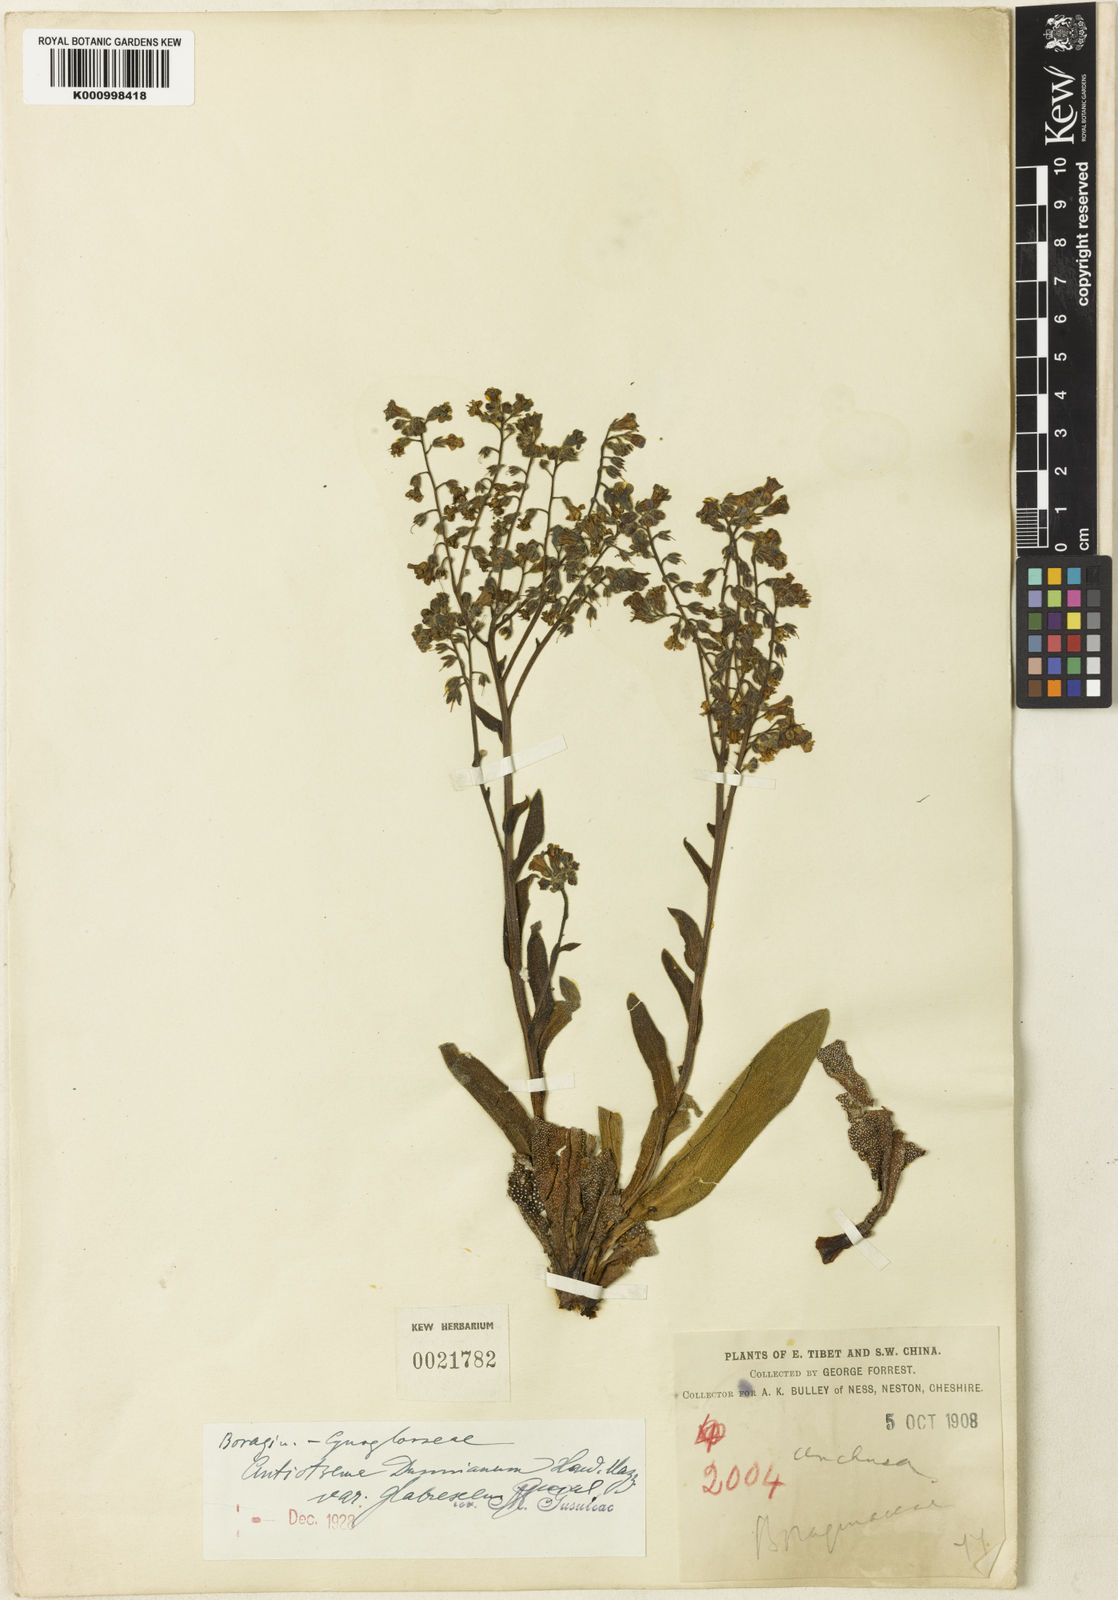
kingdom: Plantae
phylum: Tracheophyta
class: Magnoliopsida
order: Boraginales
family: Boraginaceae
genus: Antiotrema
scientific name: Antiotrema dunnianum
